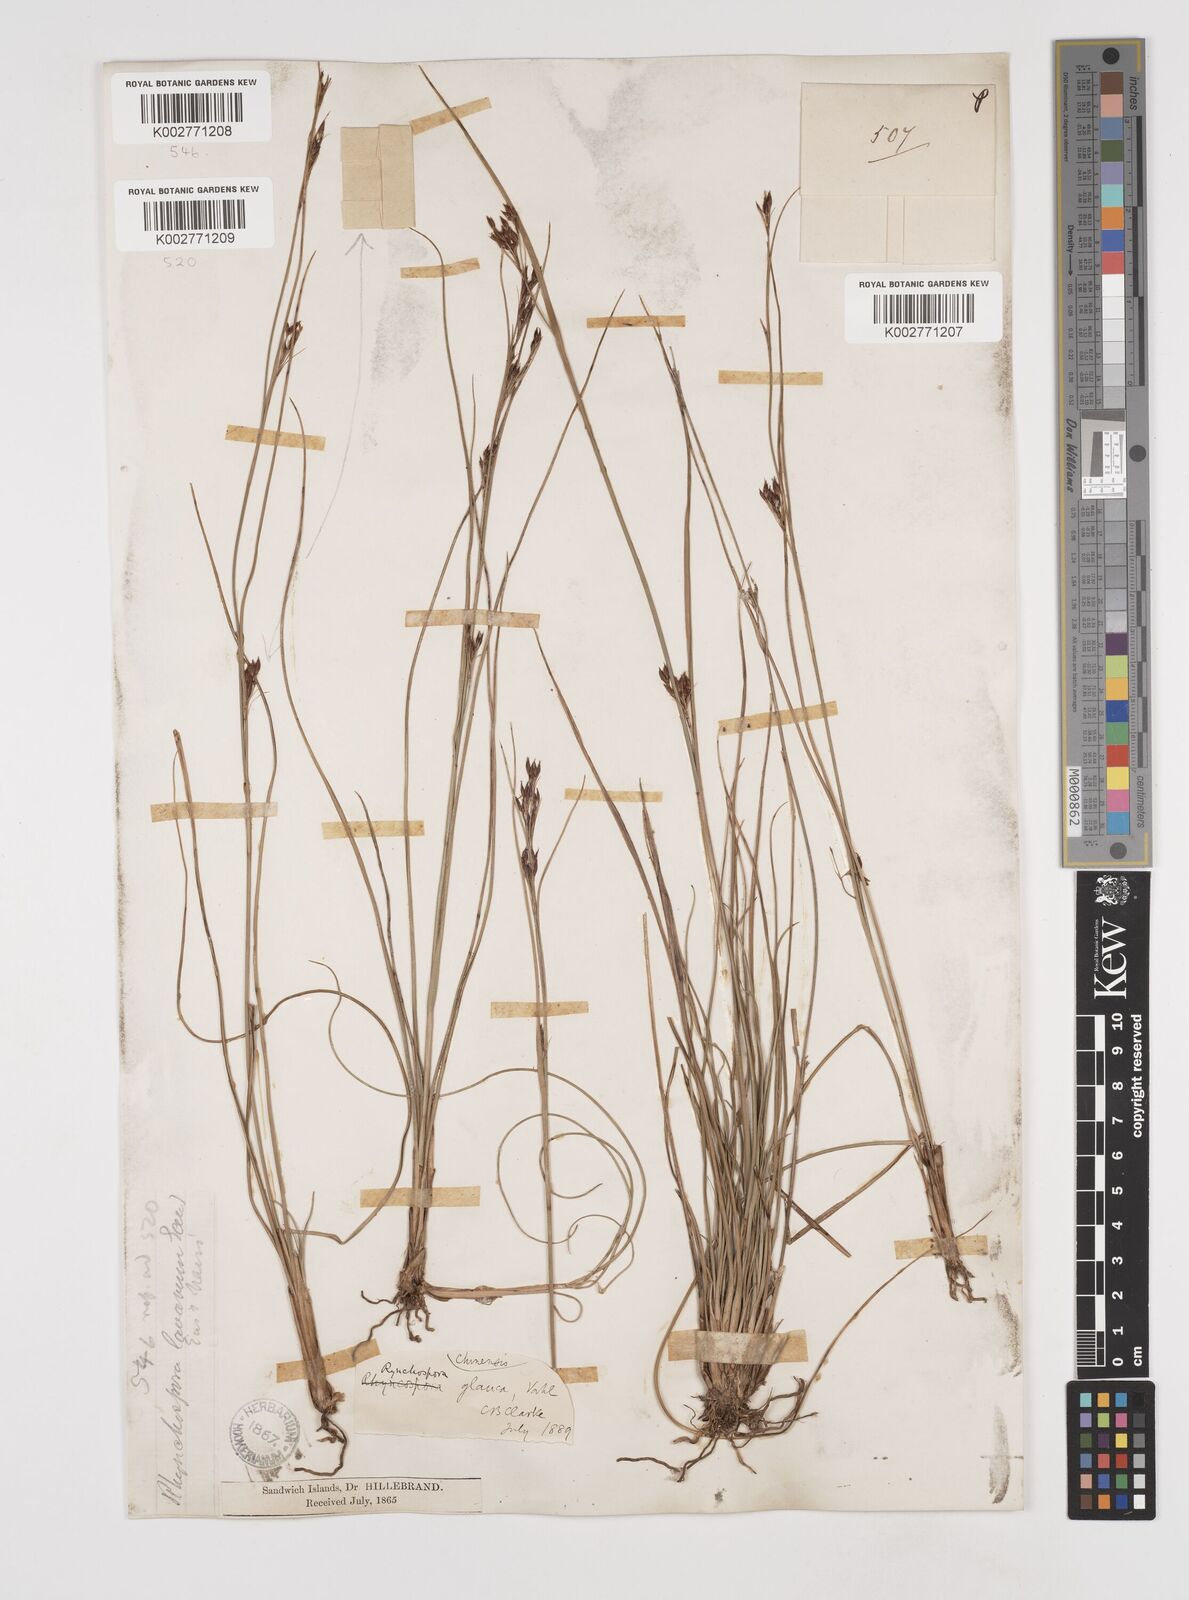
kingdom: Plantae
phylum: Tracheophyta
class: Liliopsida
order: Poales
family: Cyperaceae
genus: Rhynchospora
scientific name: Rhynchospora rugosa
